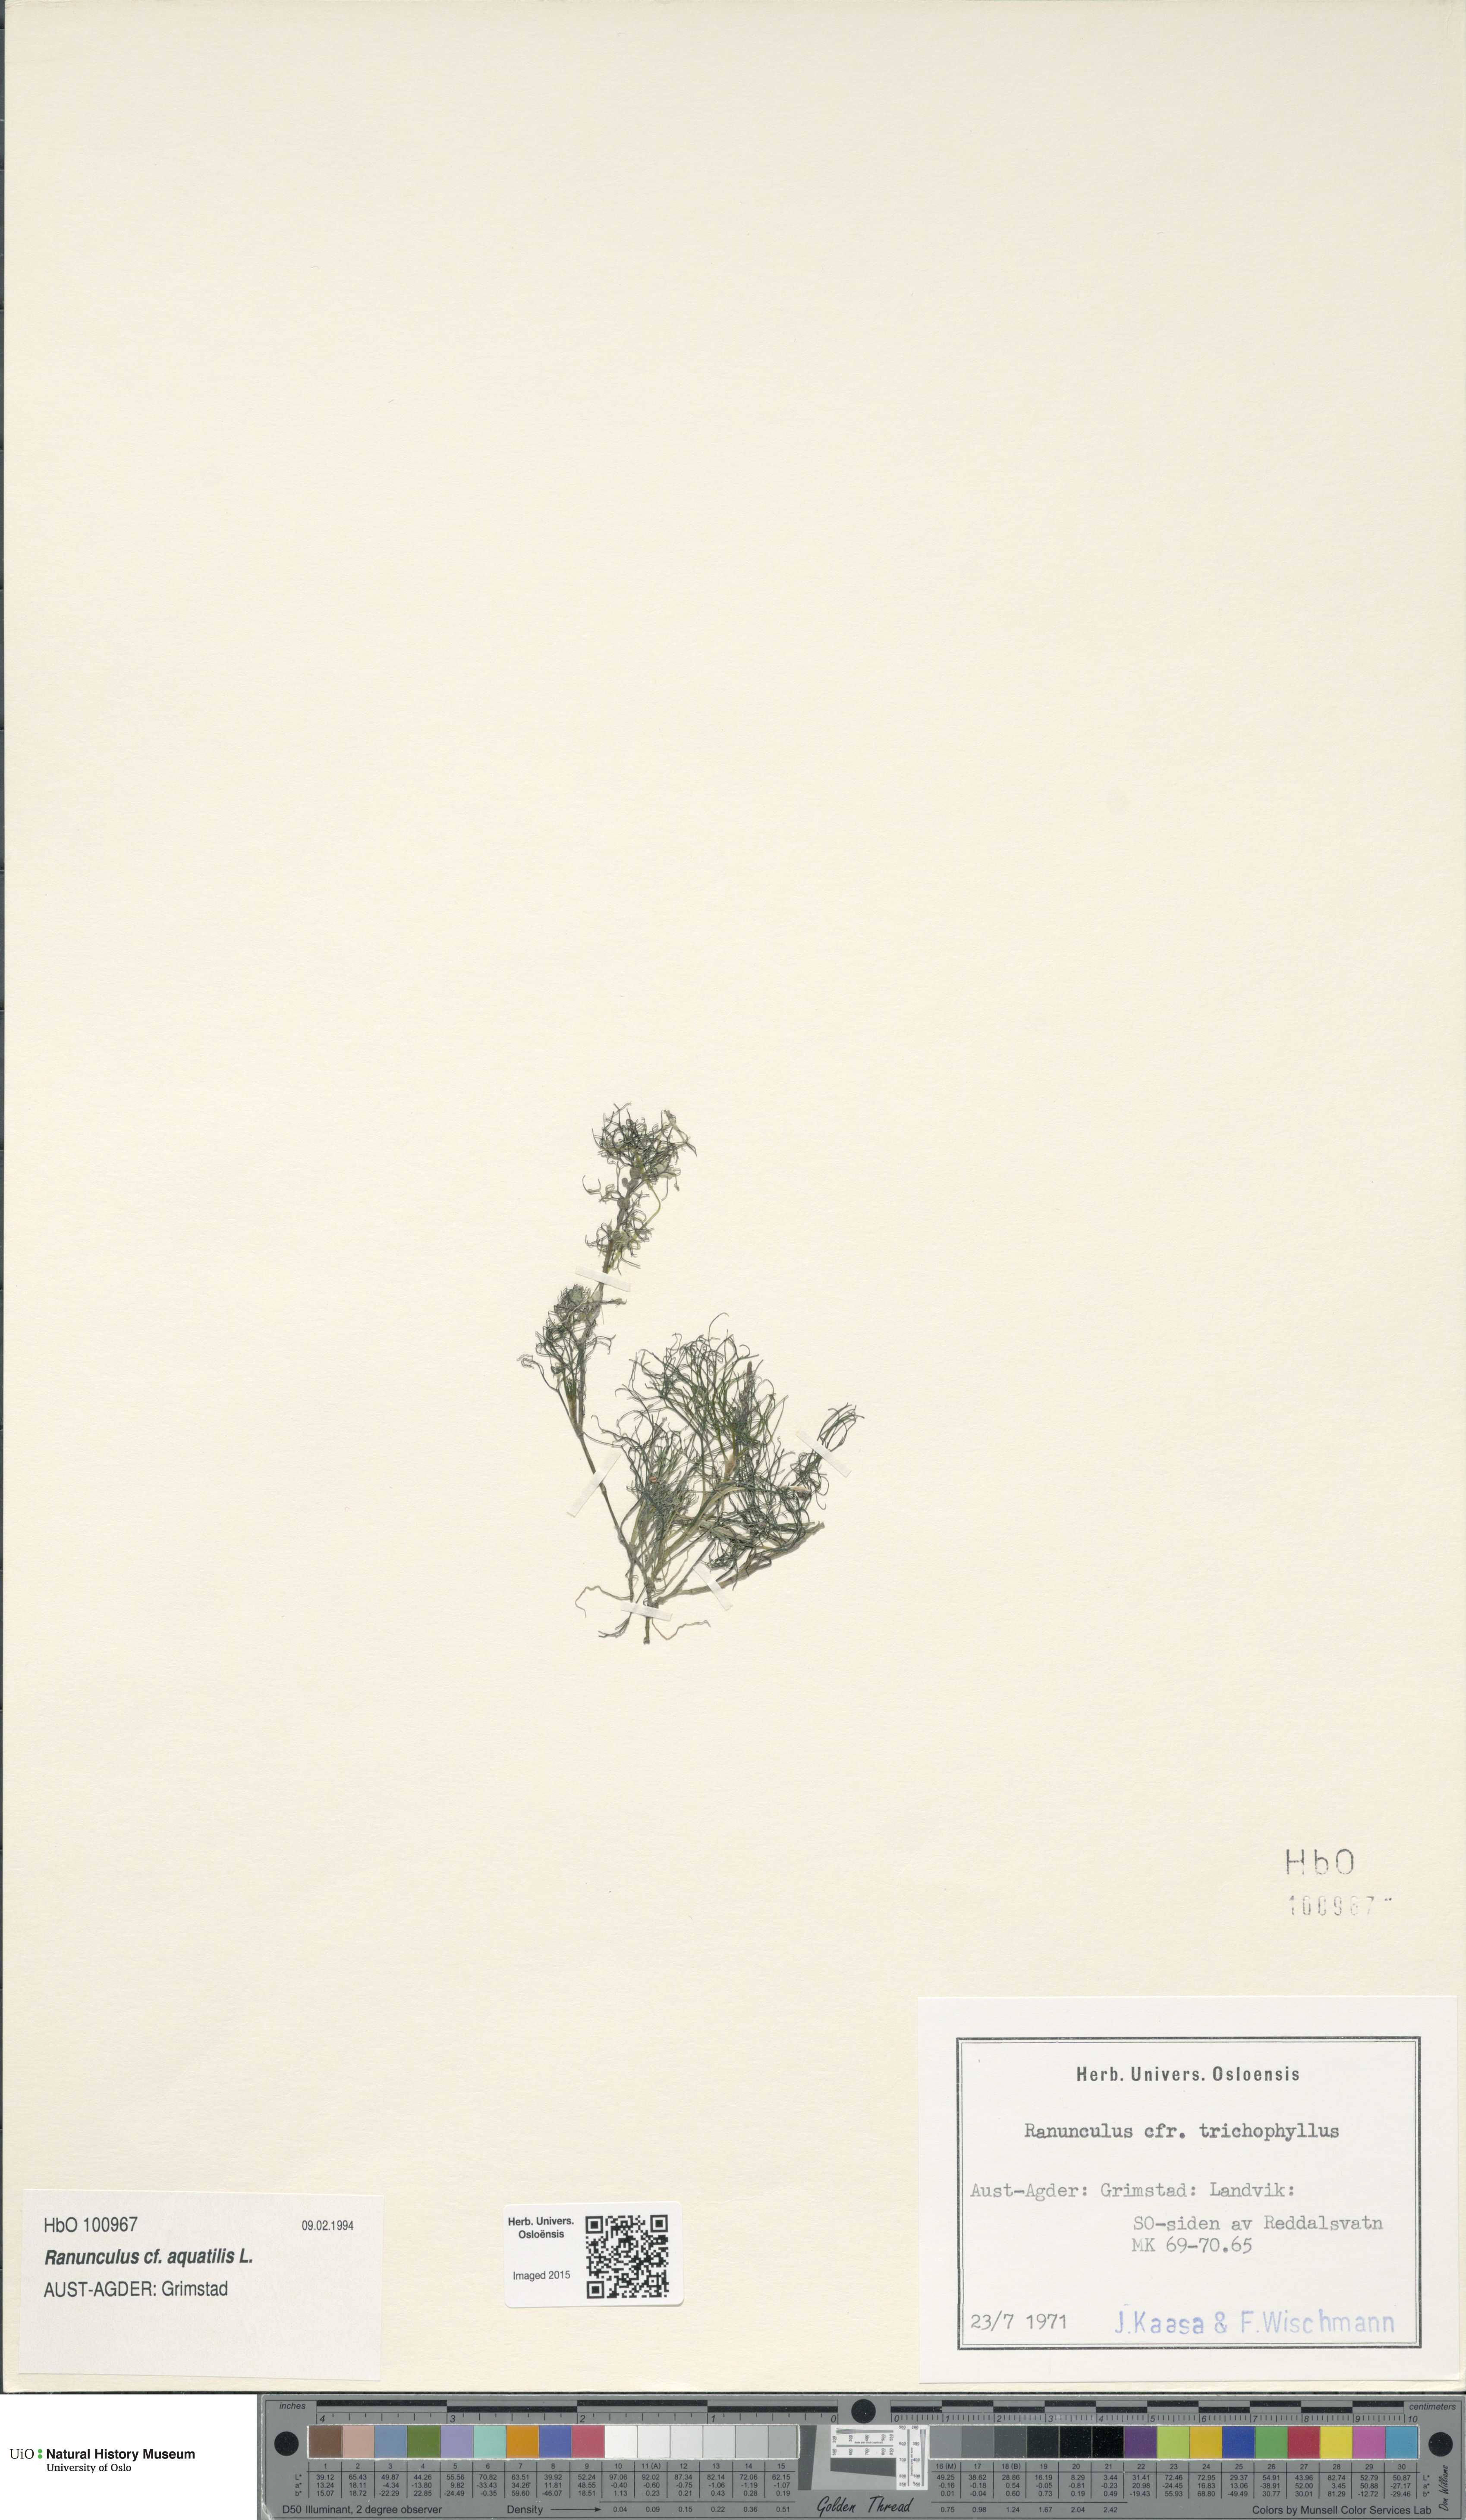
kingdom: Plantae
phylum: Tracheophyta
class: Magnoliopsida
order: Ranunculales
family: Ranunculaceae
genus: Ranunculus
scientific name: Ranunculus trichophyllus
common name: Thread-leaved water-crowfoot
